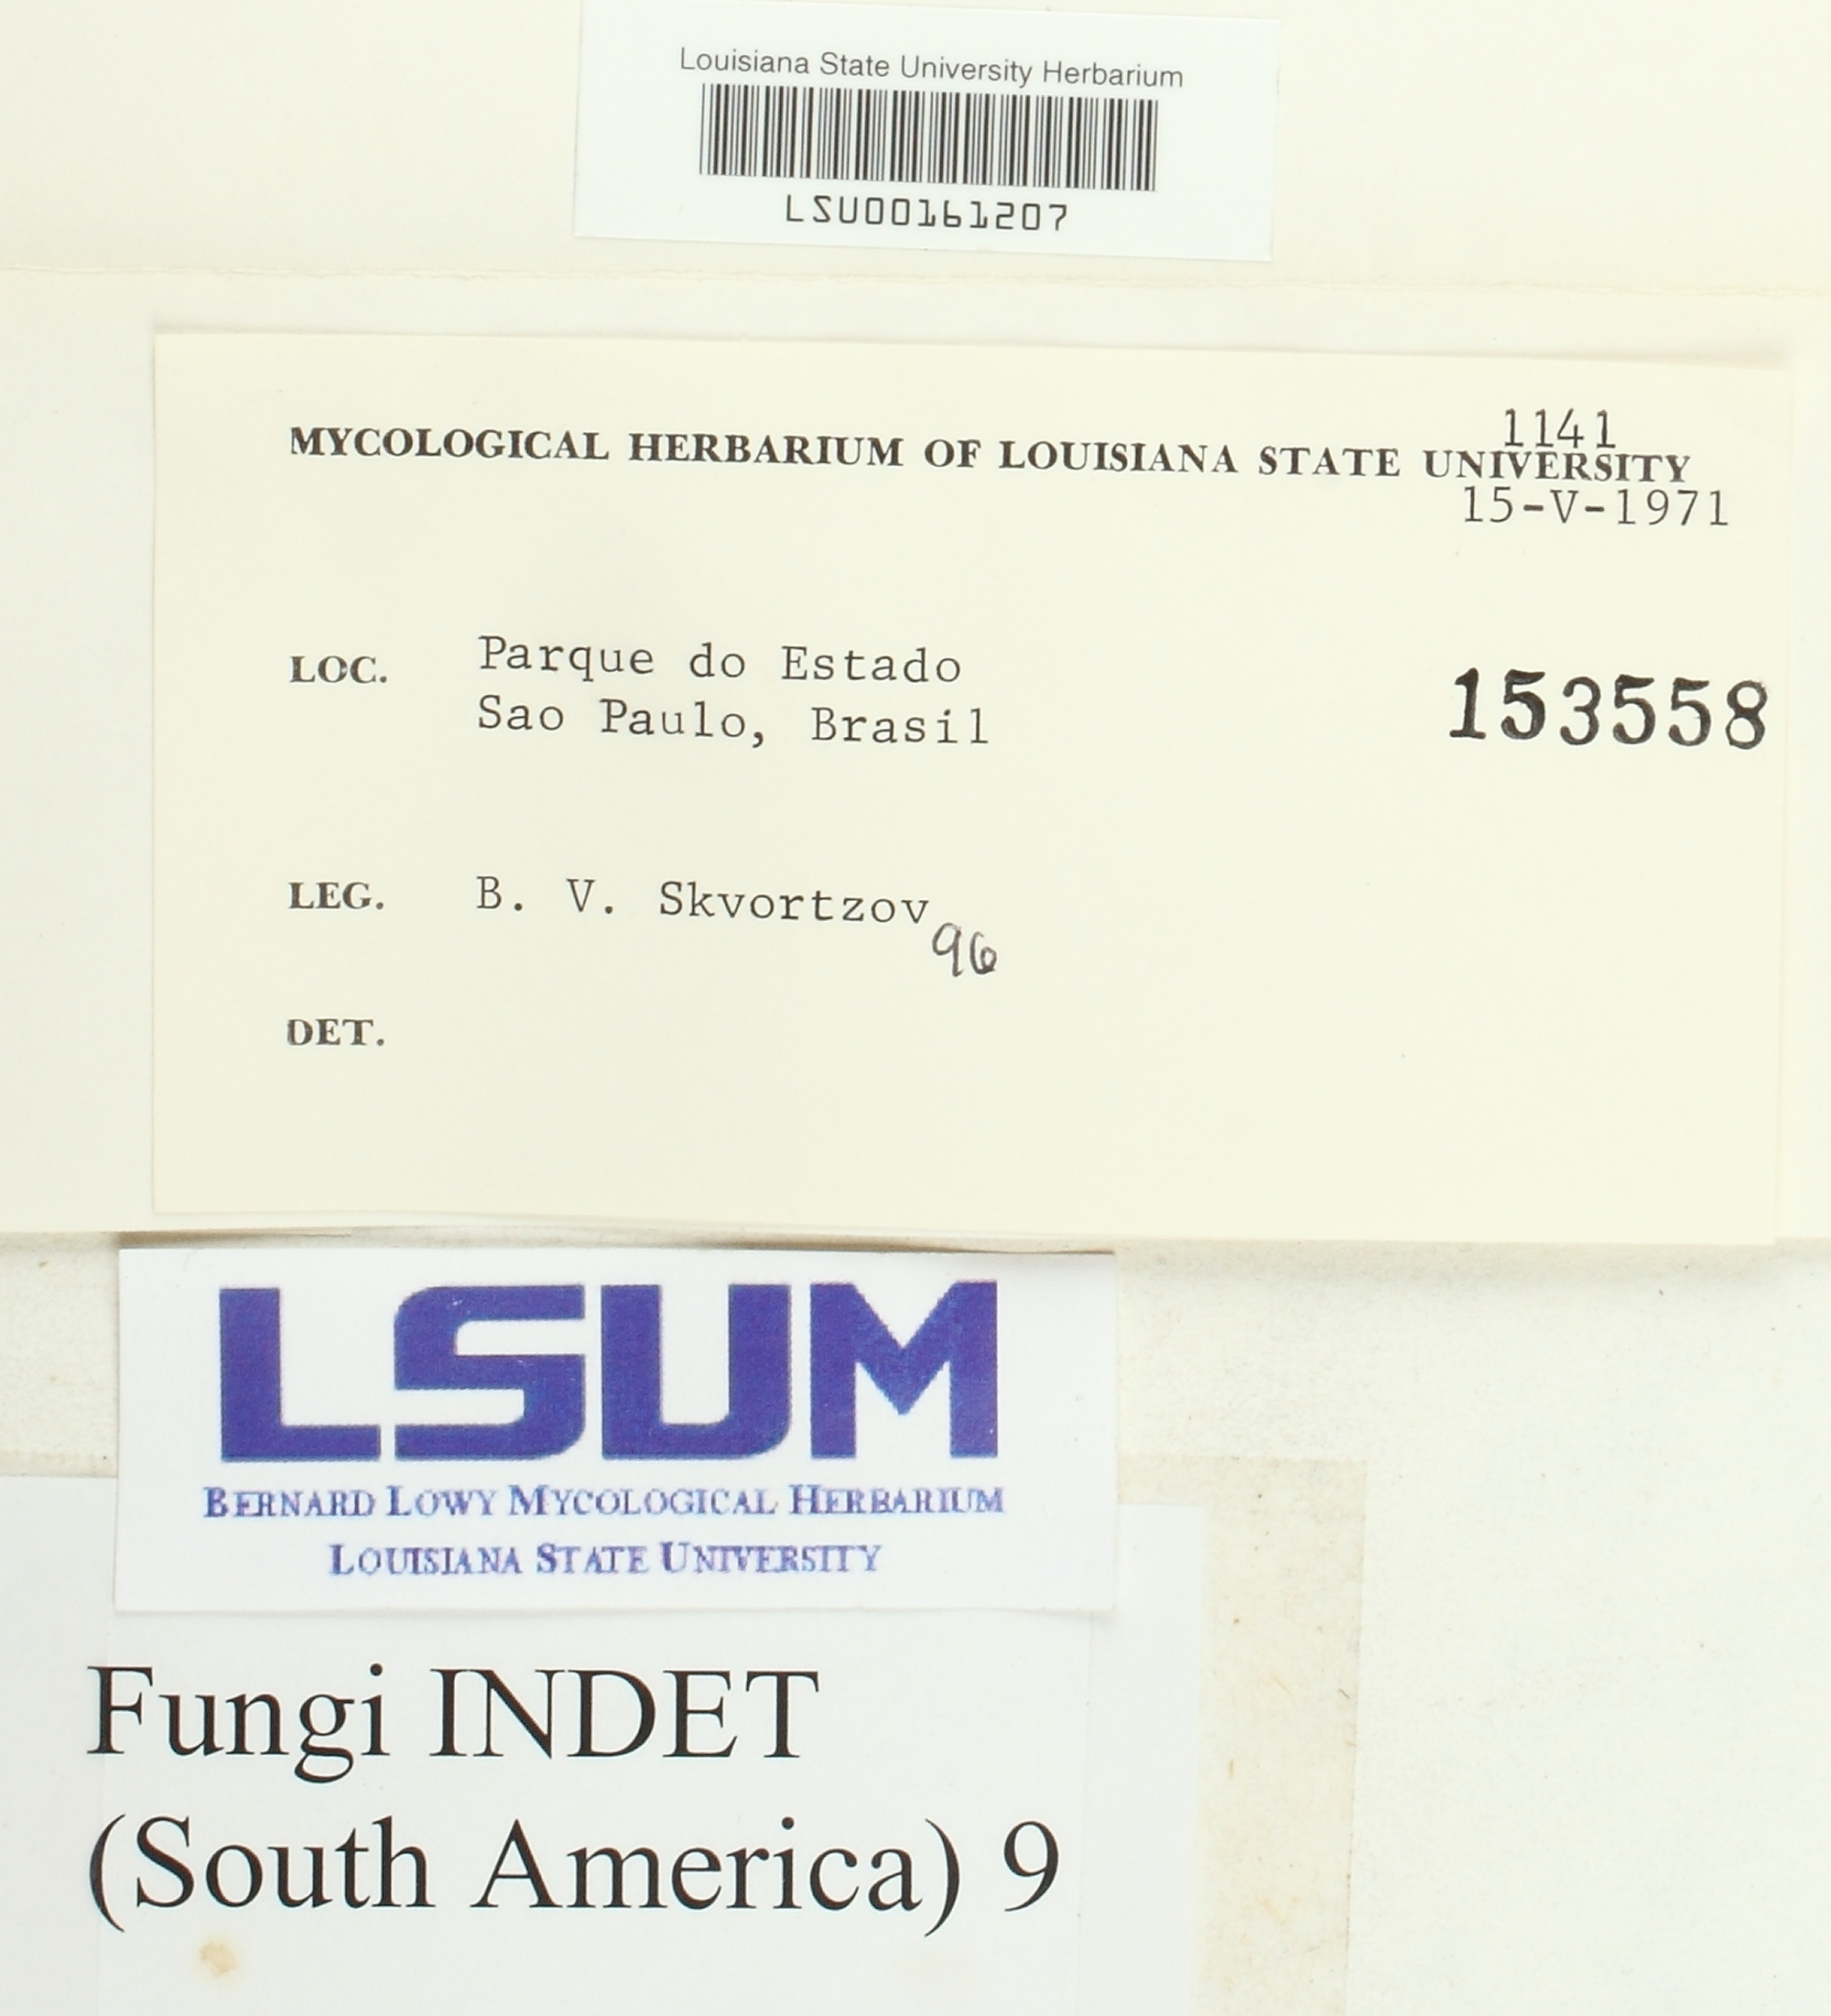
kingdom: Fungi
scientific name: Fungi
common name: Fungi
